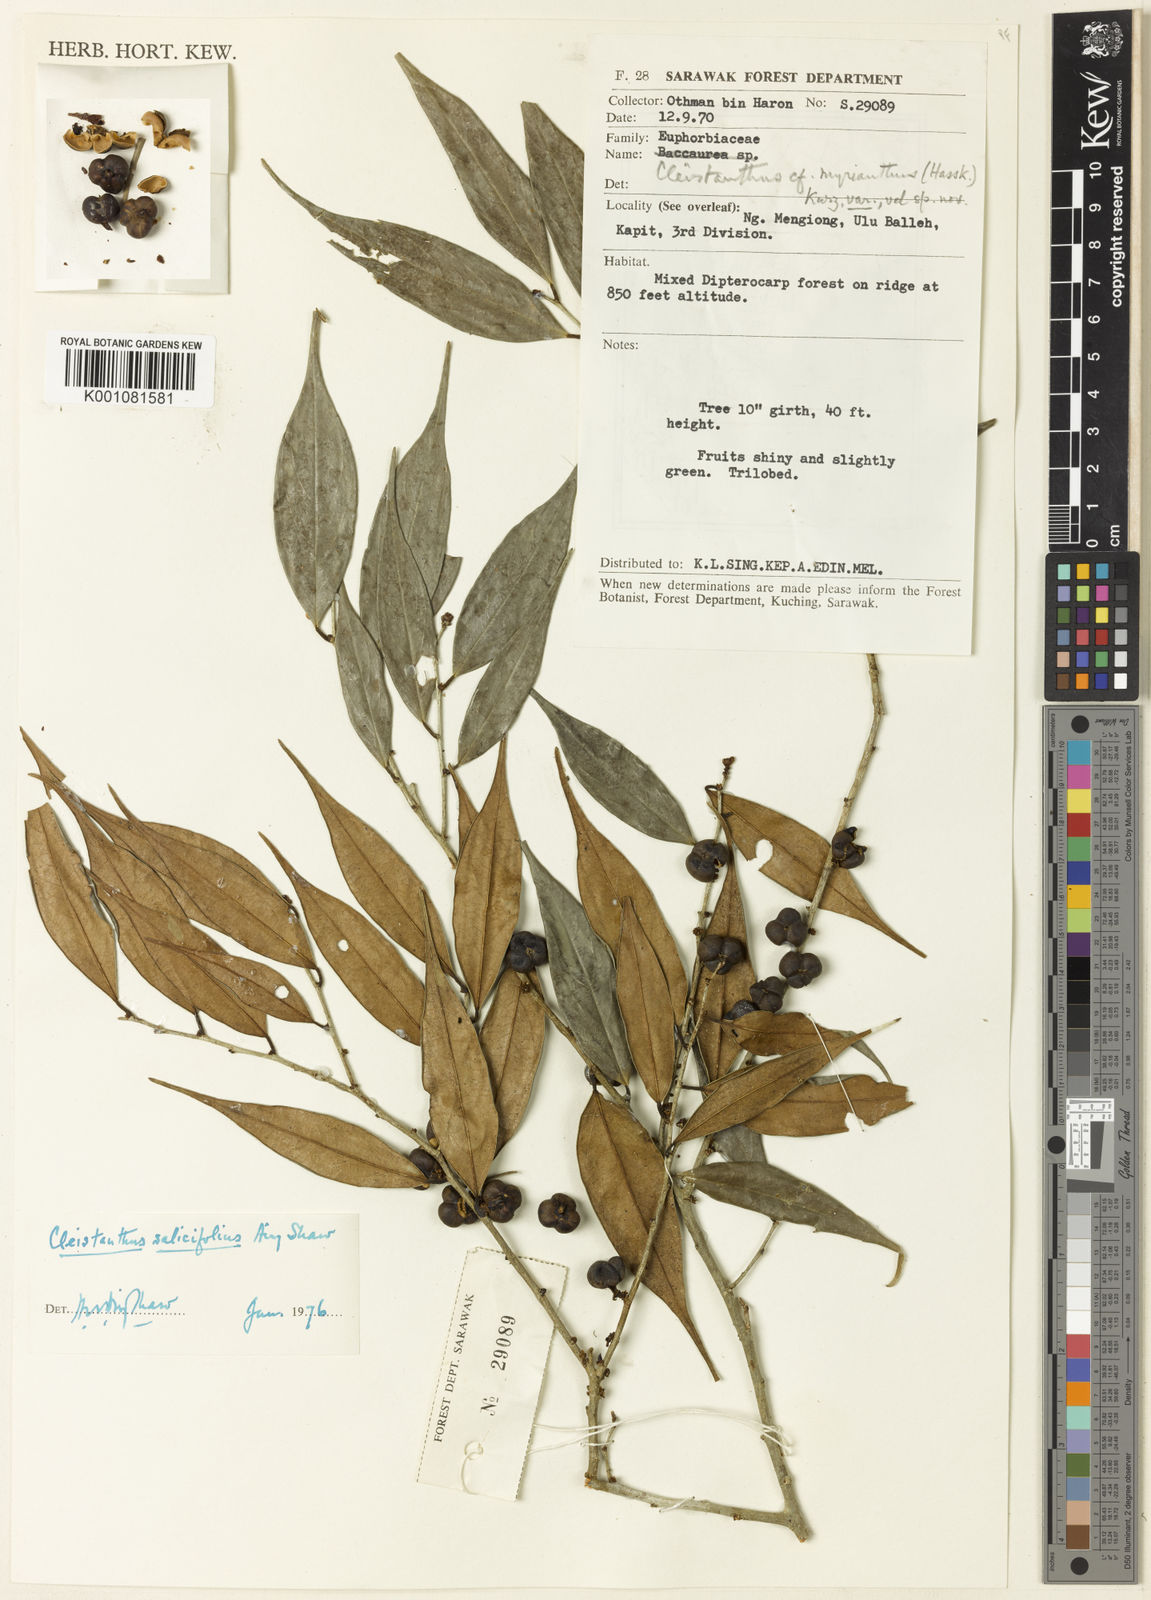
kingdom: Plantae
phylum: Tracheophyta
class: Magnoliopsida
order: Malpighiales
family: Phyllanthaceae
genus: Cleistanthus
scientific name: Cleistanthus salicifolius
